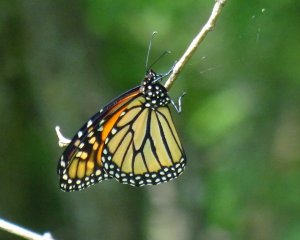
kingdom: Animalia
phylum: Arthropoda
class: Insecta
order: Lepidoptera
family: Nymphalidae
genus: Danaus
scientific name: Danaus plexippus
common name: Monarch
